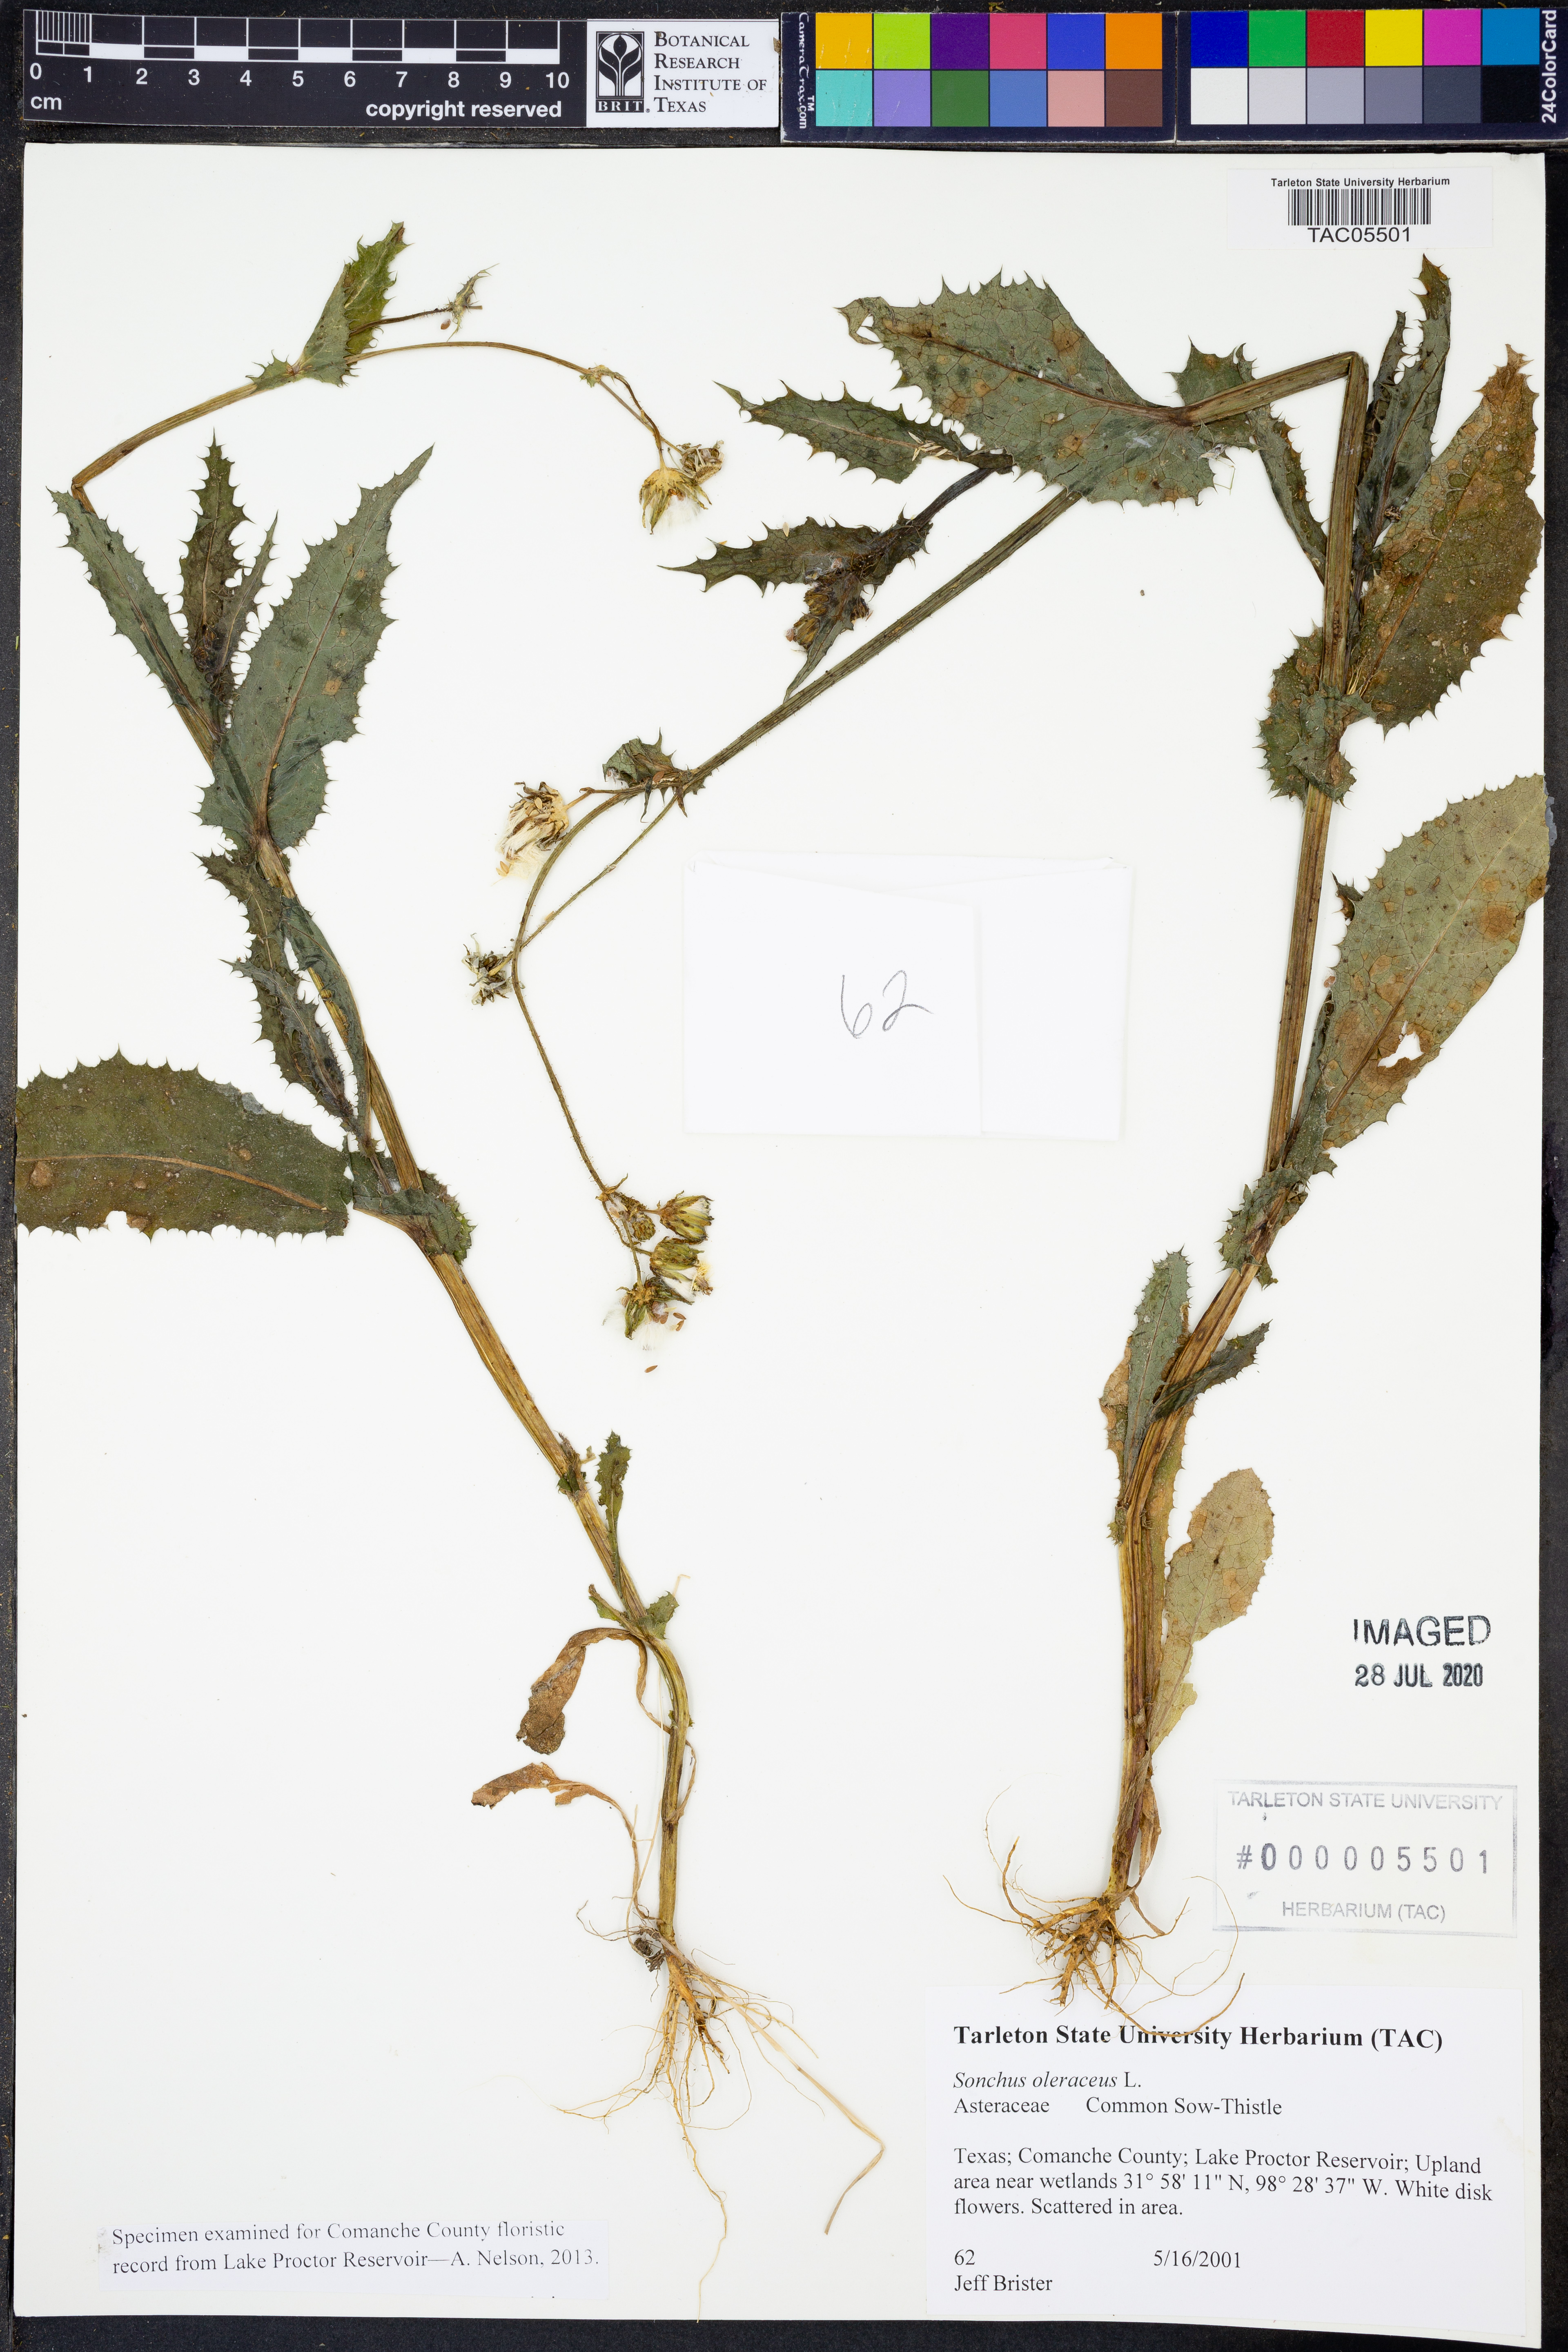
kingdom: Plantae
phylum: Tracheophyta
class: Magnoliopsida
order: Asterales
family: Asteraceae
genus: Sonchus
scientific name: Sonchus asper
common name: Prickly sow-thistle
